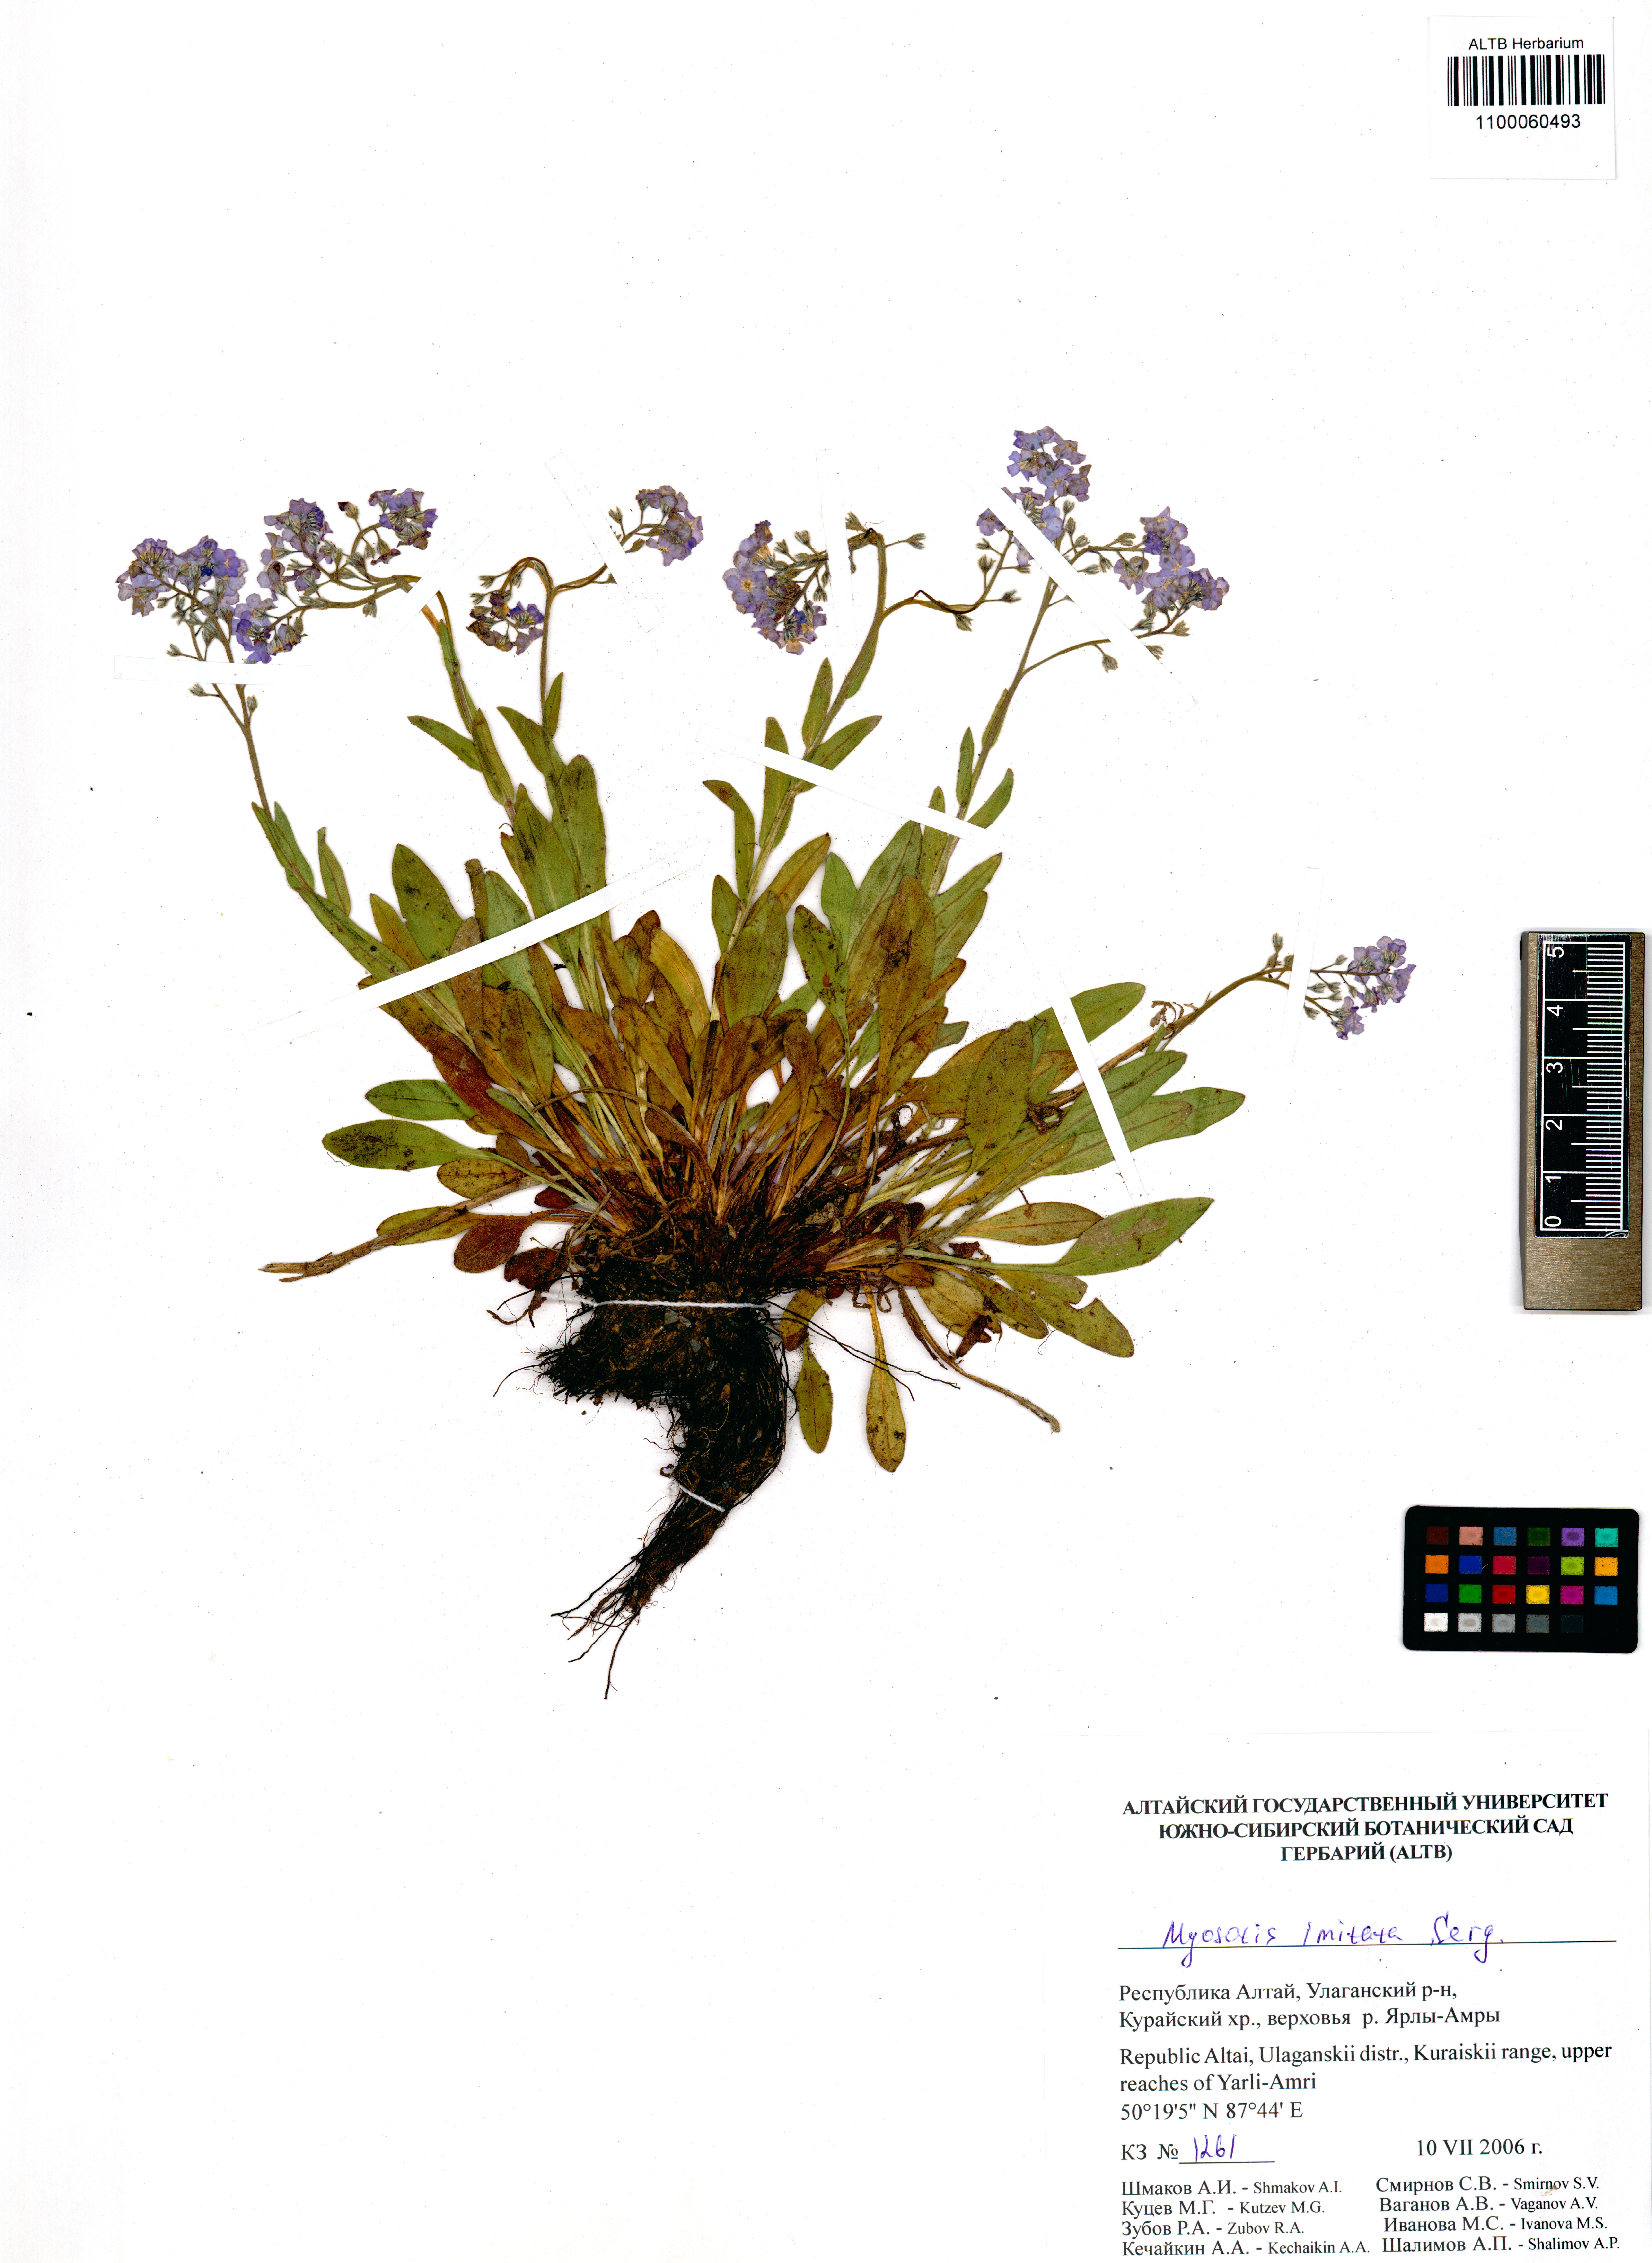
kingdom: Plantae
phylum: Tracheophyta
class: Magnoliopsida
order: Boraginales
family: Boraginaceae
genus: Myosotis
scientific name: Myosotis imitata
